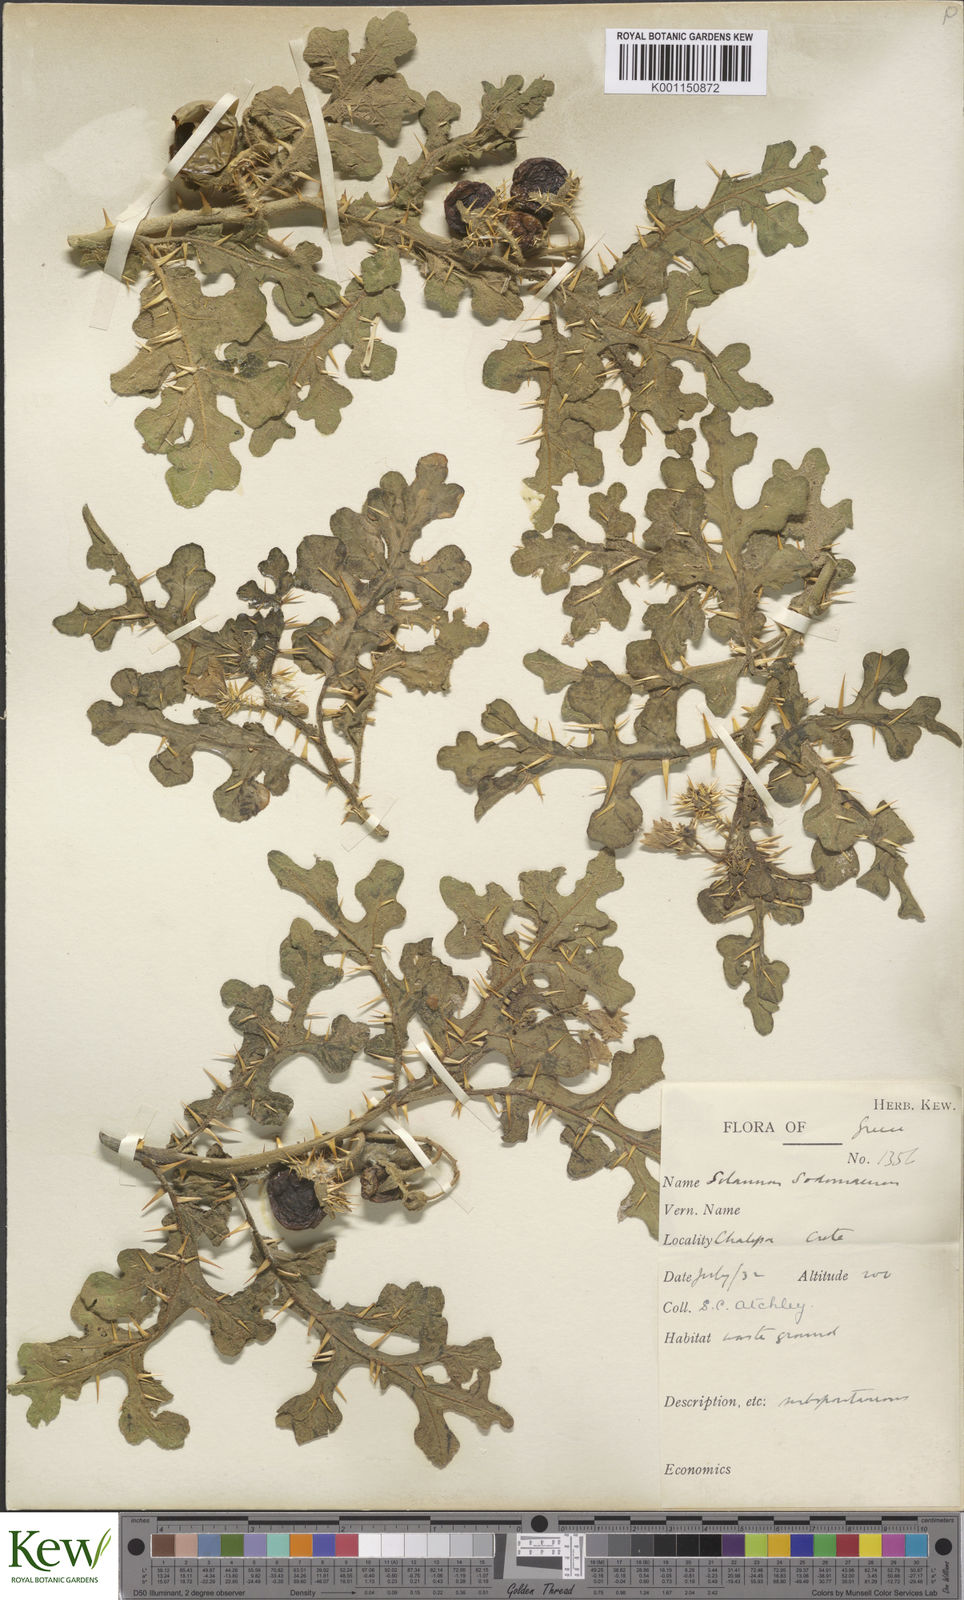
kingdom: Plantae
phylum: Tracheophyta
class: Magnoliopsida
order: Solanales
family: Solanaceae
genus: Solanum
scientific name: Solanum anguivi
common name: Forest bitterberry
